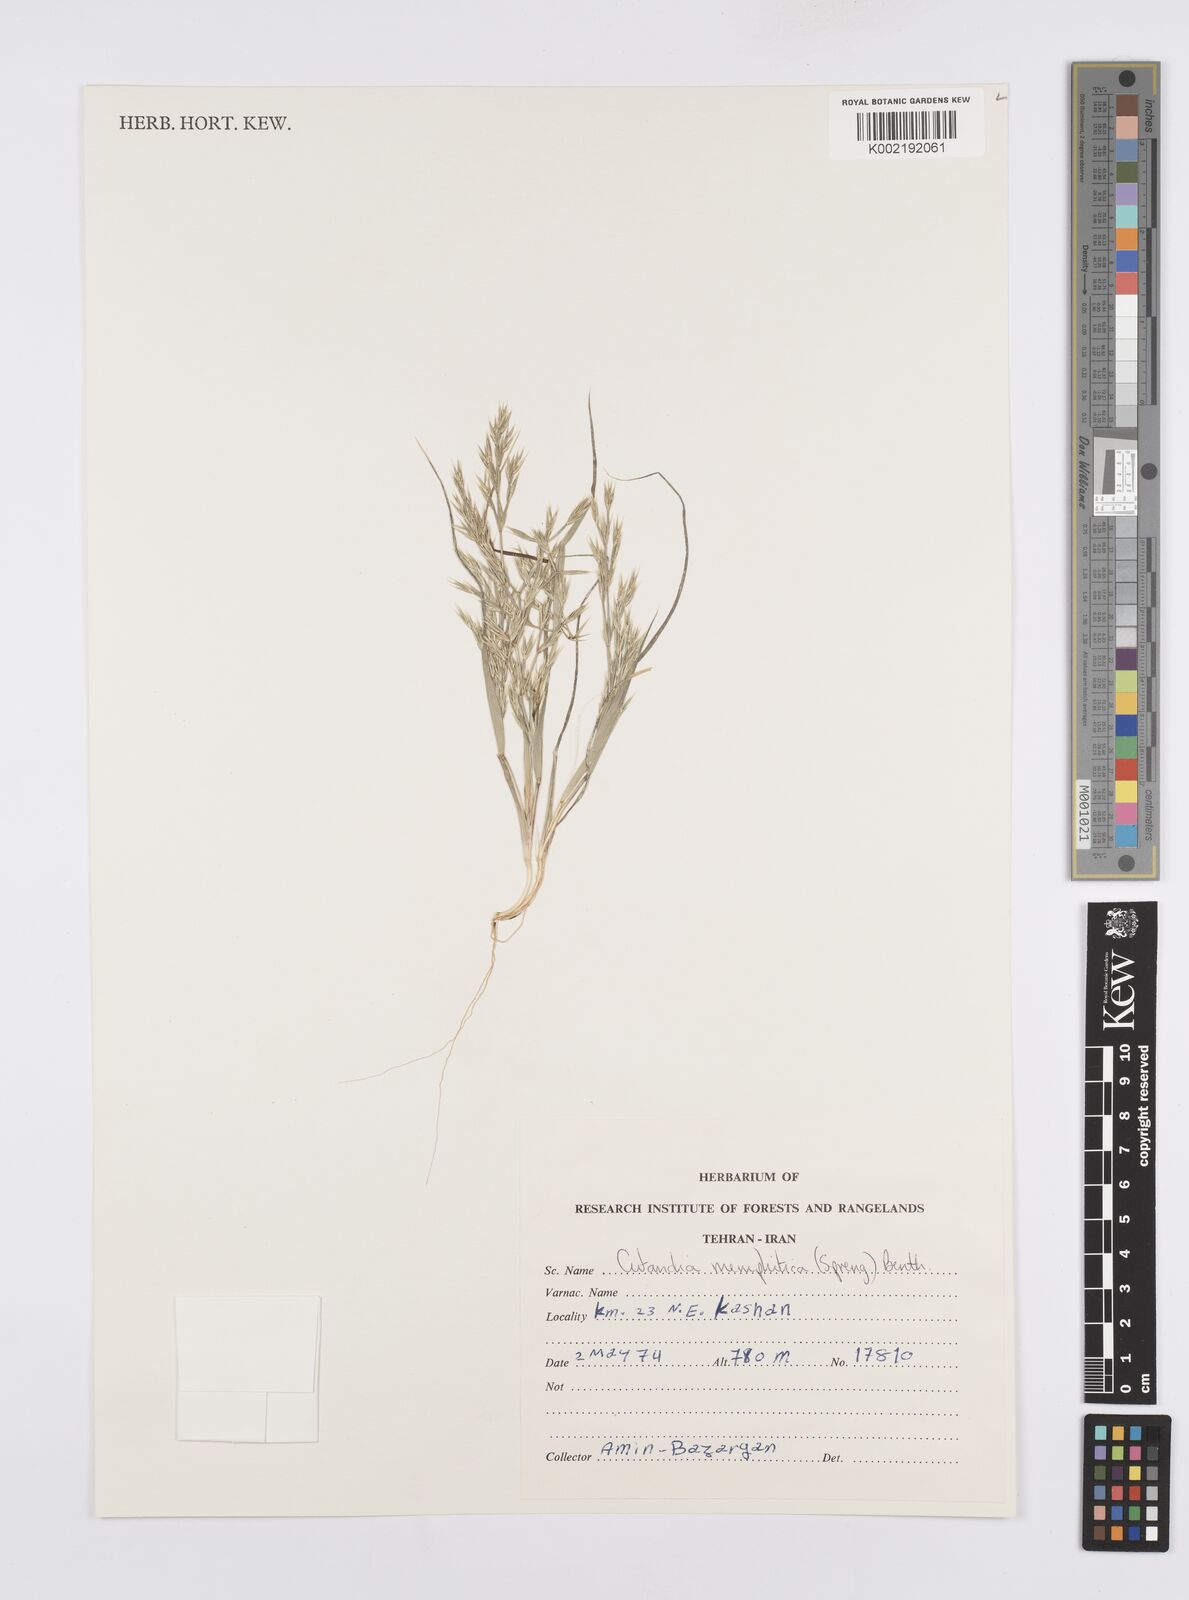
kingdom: Plantae
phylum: Tracheophyta
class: Liliopsida
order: Poales
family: Poaceae
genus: Cutandia
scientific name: Cutandia memphitica
